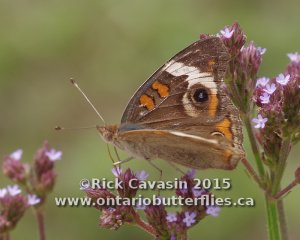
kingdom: Animalia
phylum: Arthropoda
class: Insecta
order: Lepidoptera
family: Nymphalidae
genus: Junonia
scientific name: Junonia coenia
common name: Common Buckeye
